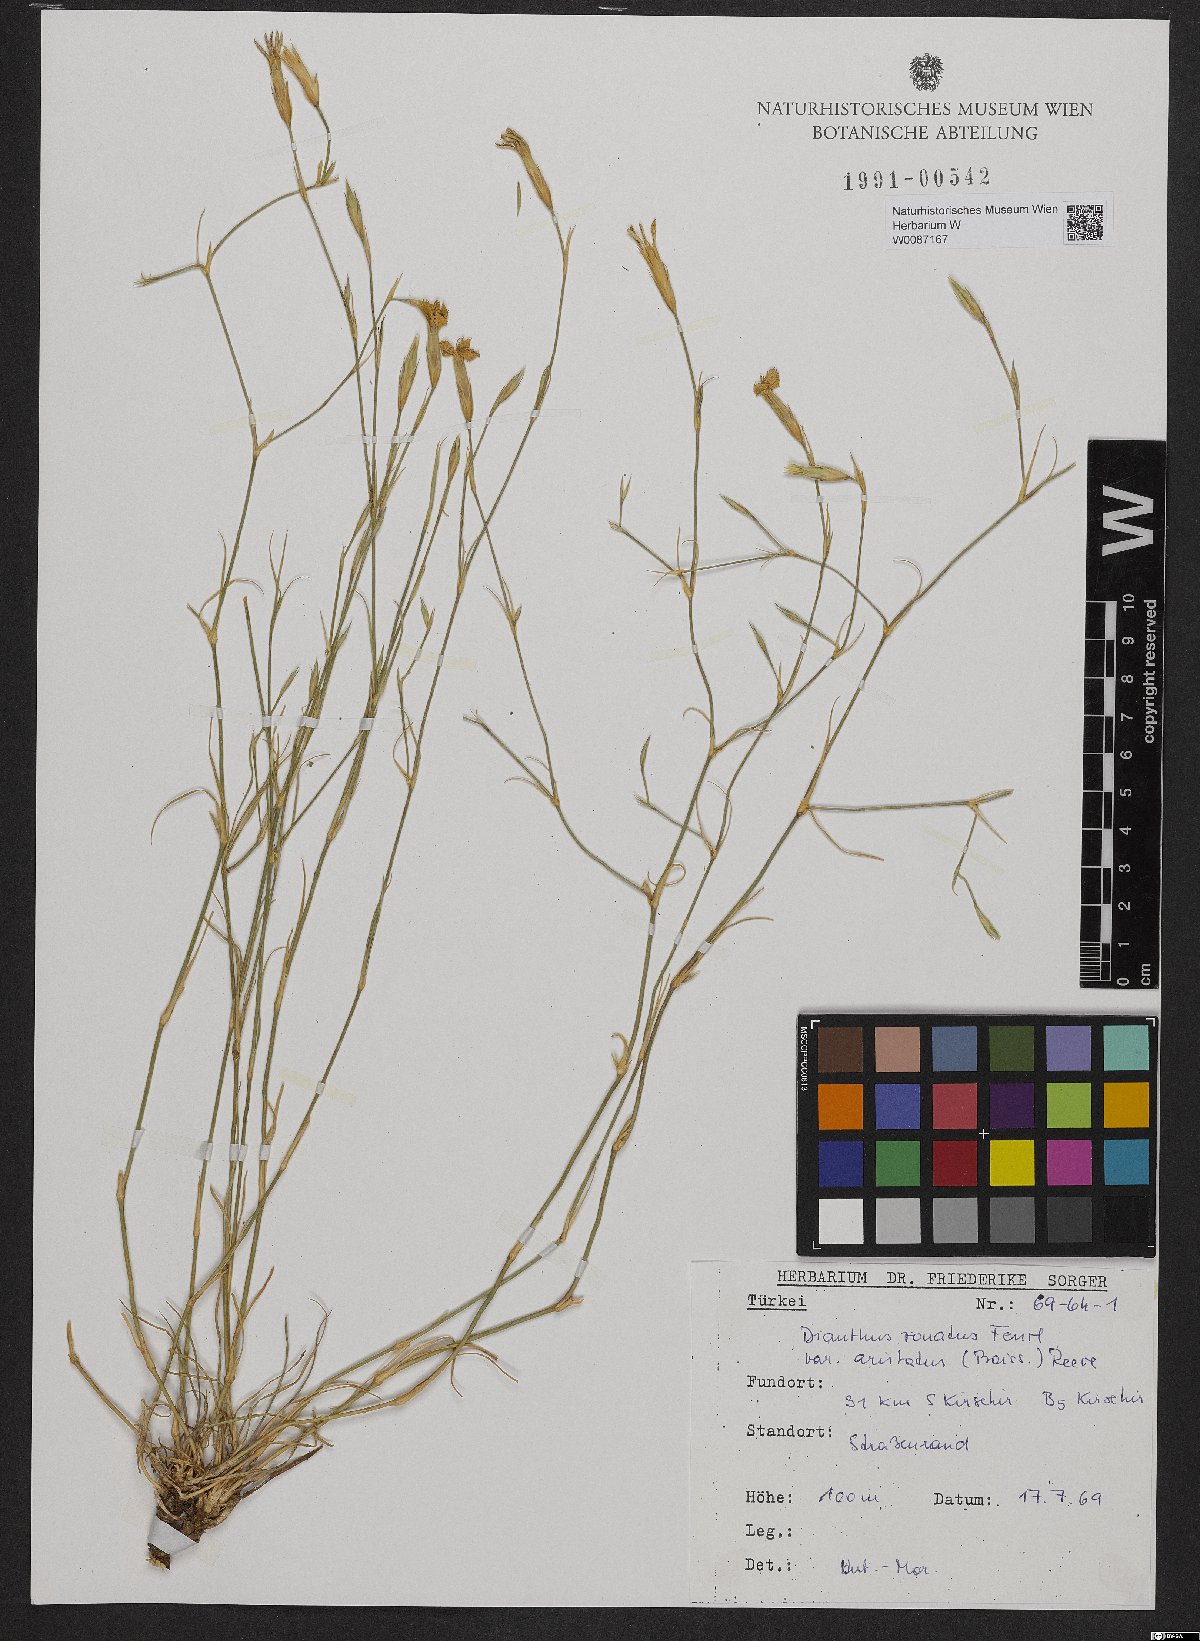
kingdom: Plantae
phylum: Tracheophyta
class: Magnoliopsida
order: Caryophyllales
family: Caryophyllaceae
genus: Dianthus
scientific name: Dianthus aristatus
